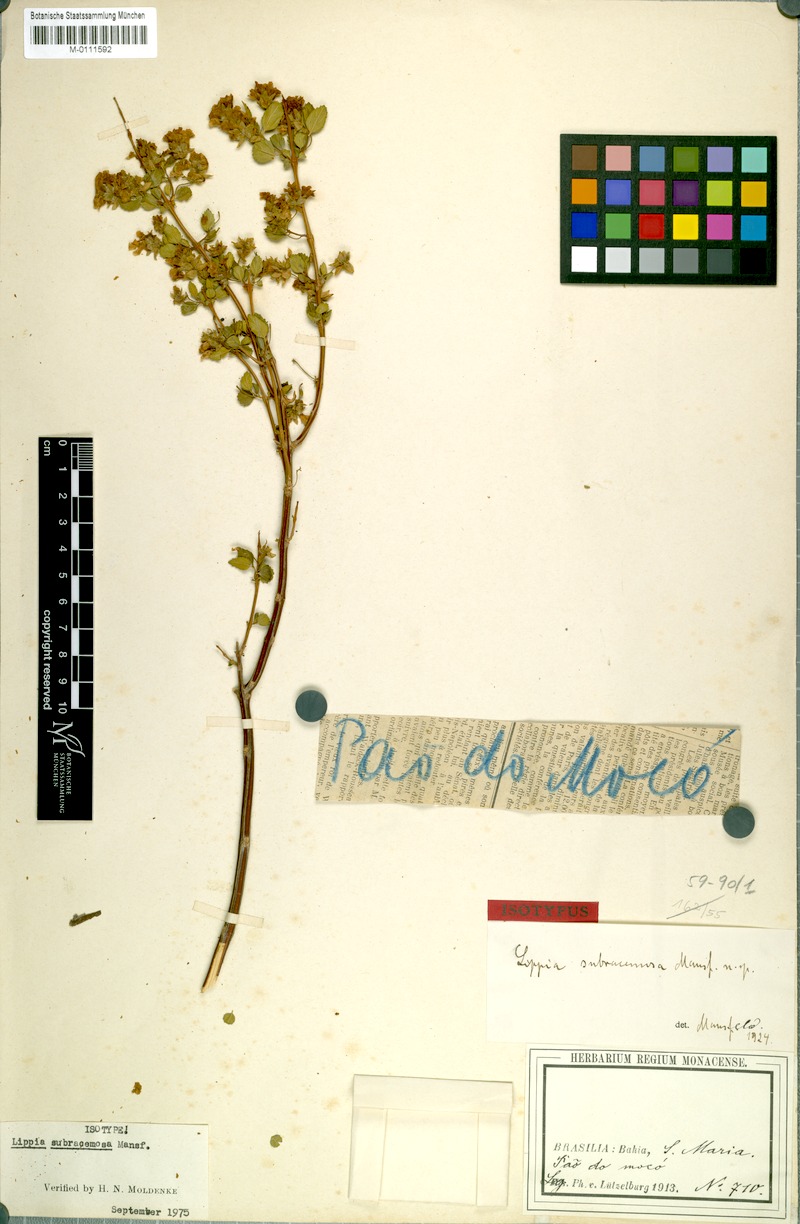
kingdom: Plantae
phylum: Tracheophyta
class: Magnoliopsida
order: Lamiales
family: Verbenaceae
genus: Lippia
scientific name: Lippia subracemosa
